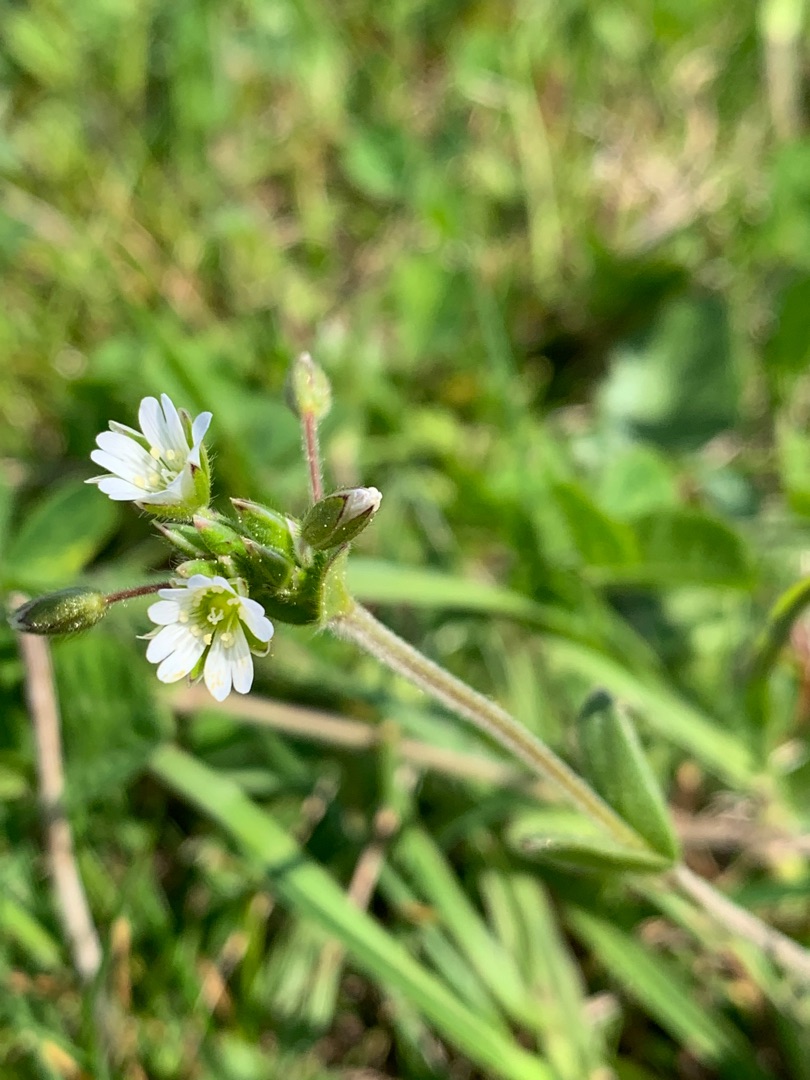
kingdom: Plantae
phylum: Tracheophyta
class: Magnoliopsida
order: Caryophyllales
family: Caryophyllaceae
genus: Cerastium
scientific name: Cerastium fontanum
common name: Almindelig hønsetarm
